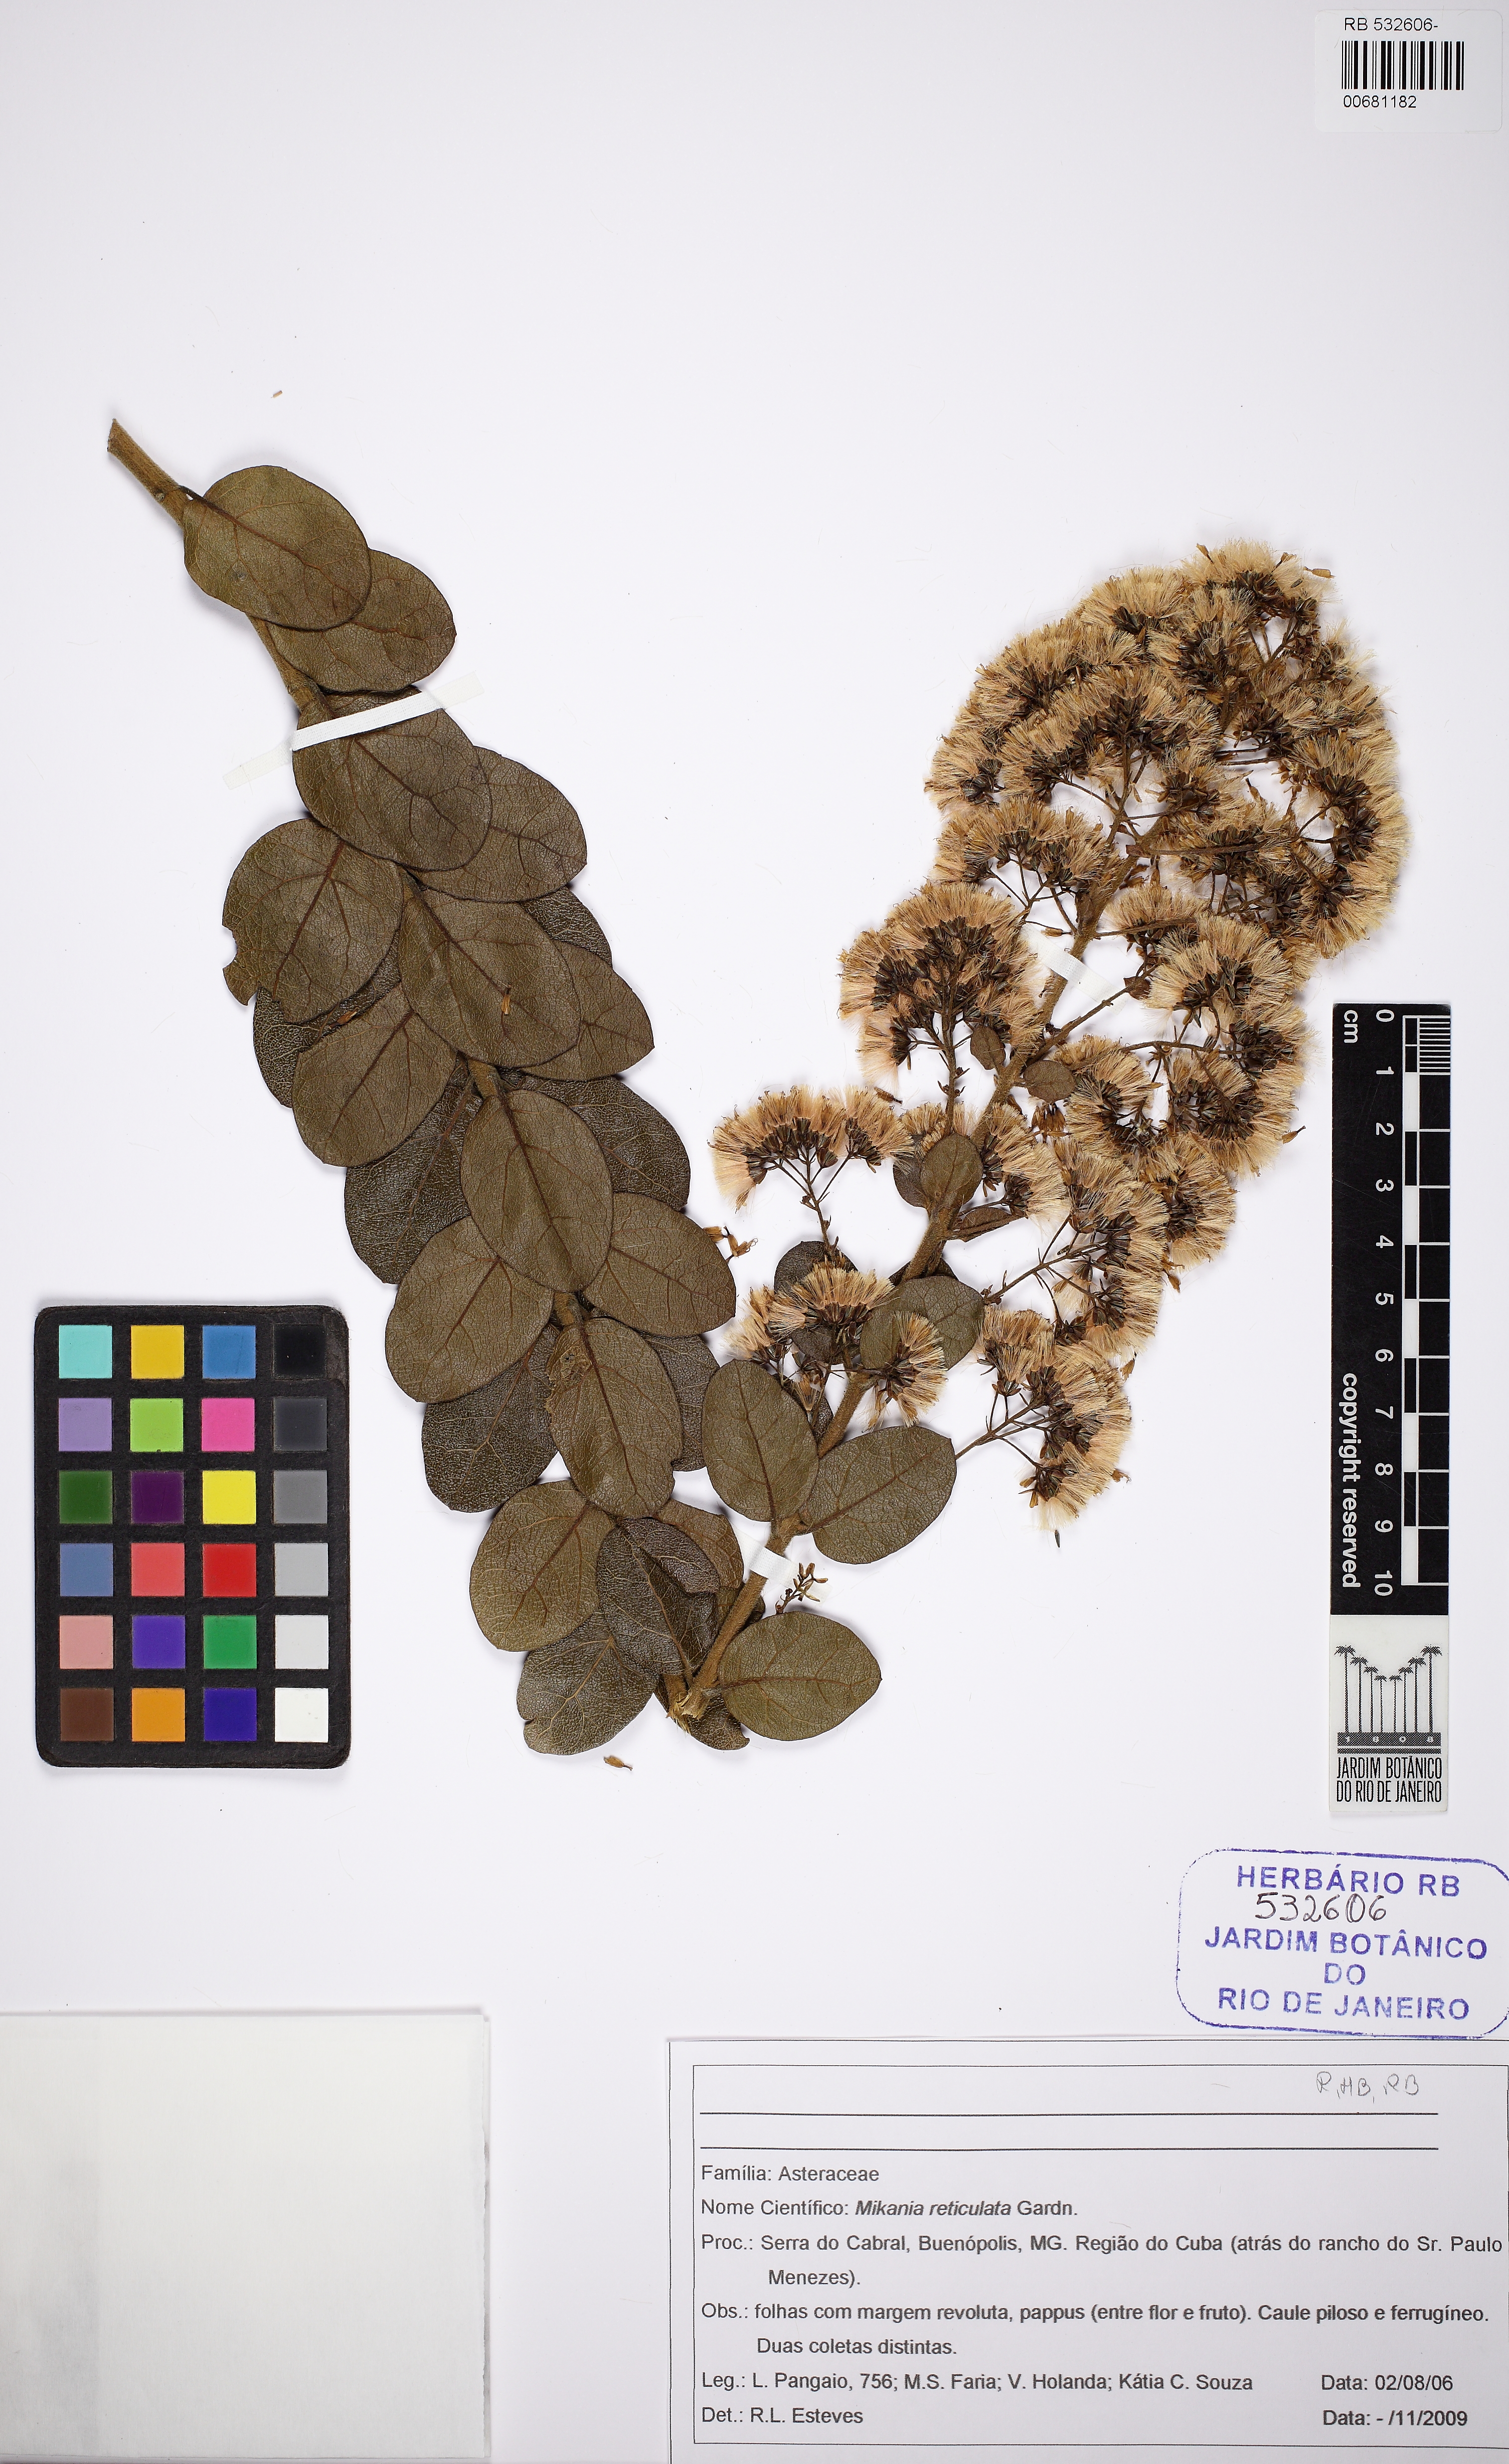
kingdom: Plantae
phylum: Tracheophyta
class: Magnoliopsida
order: Asterales
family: Asteraceae
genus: Mikania
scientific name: Mikania reticulata
